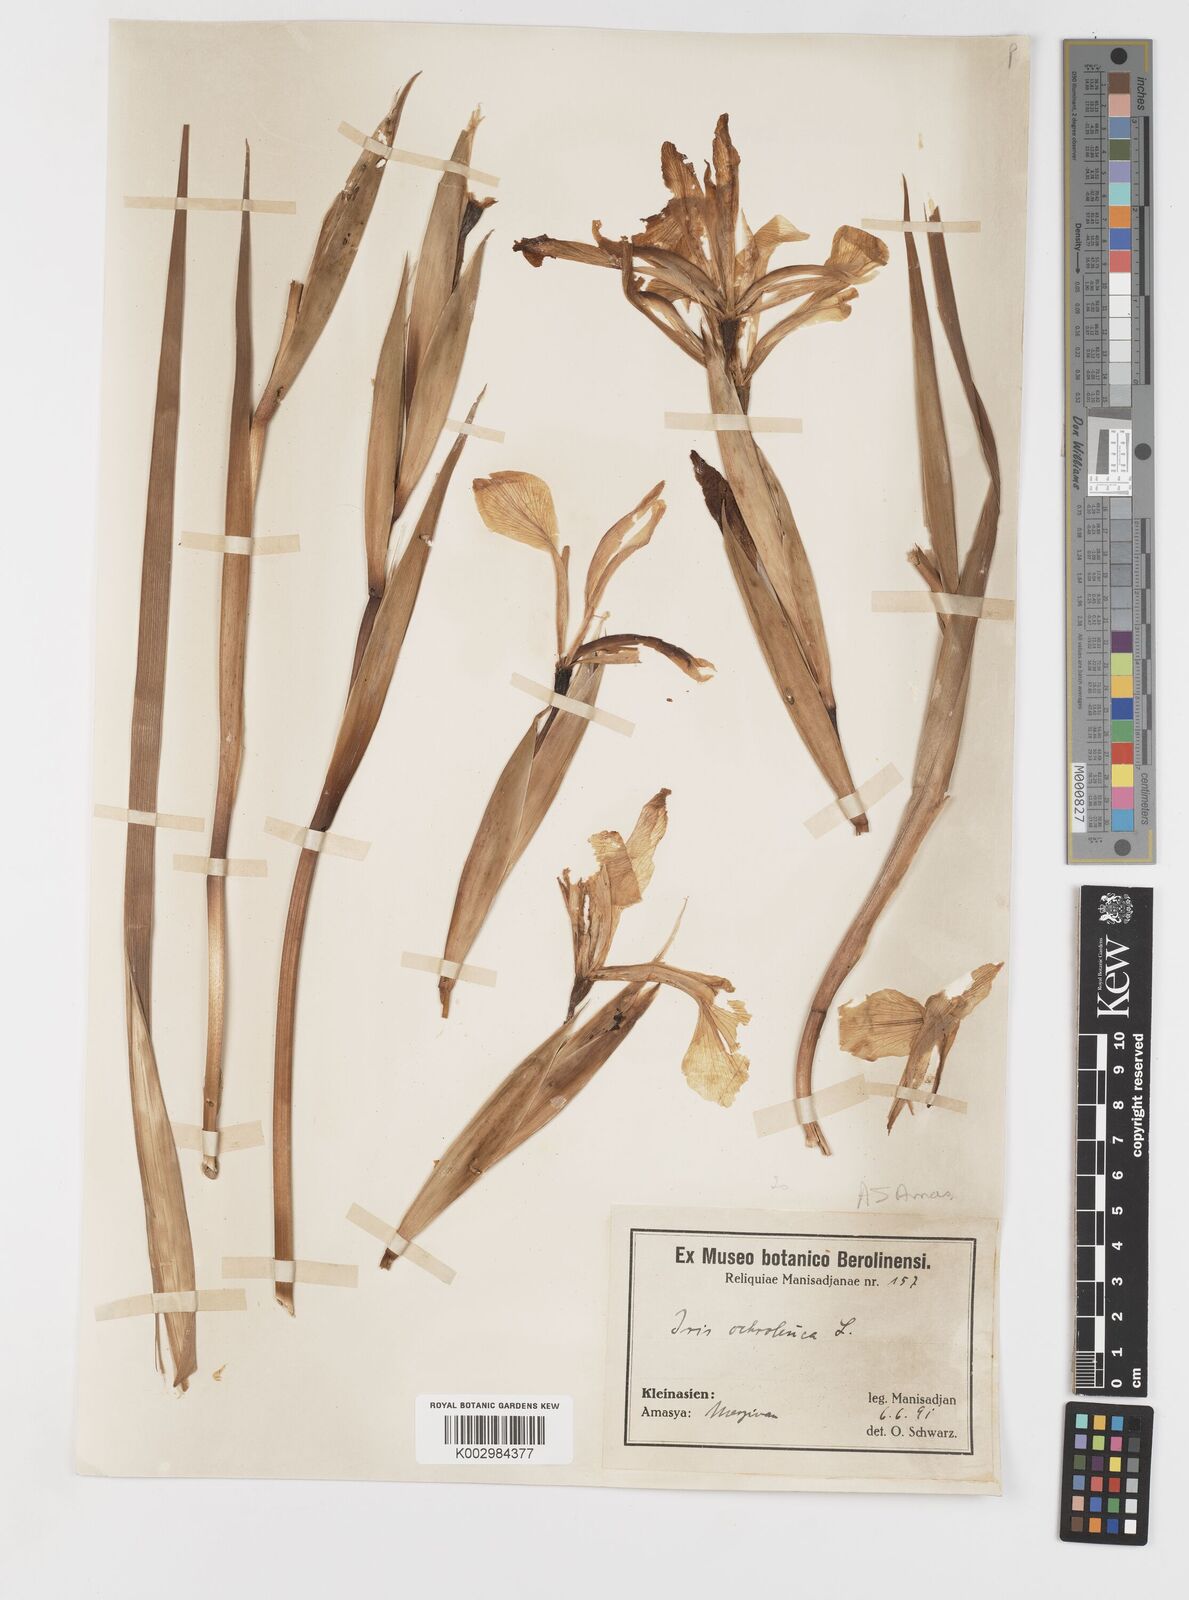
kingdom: Plantae
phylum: Tracheophyta
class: Liliopsida
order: Asparagales
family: Iridaceae
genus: Iris
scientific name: Iris orientalis
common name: Turkish iris
